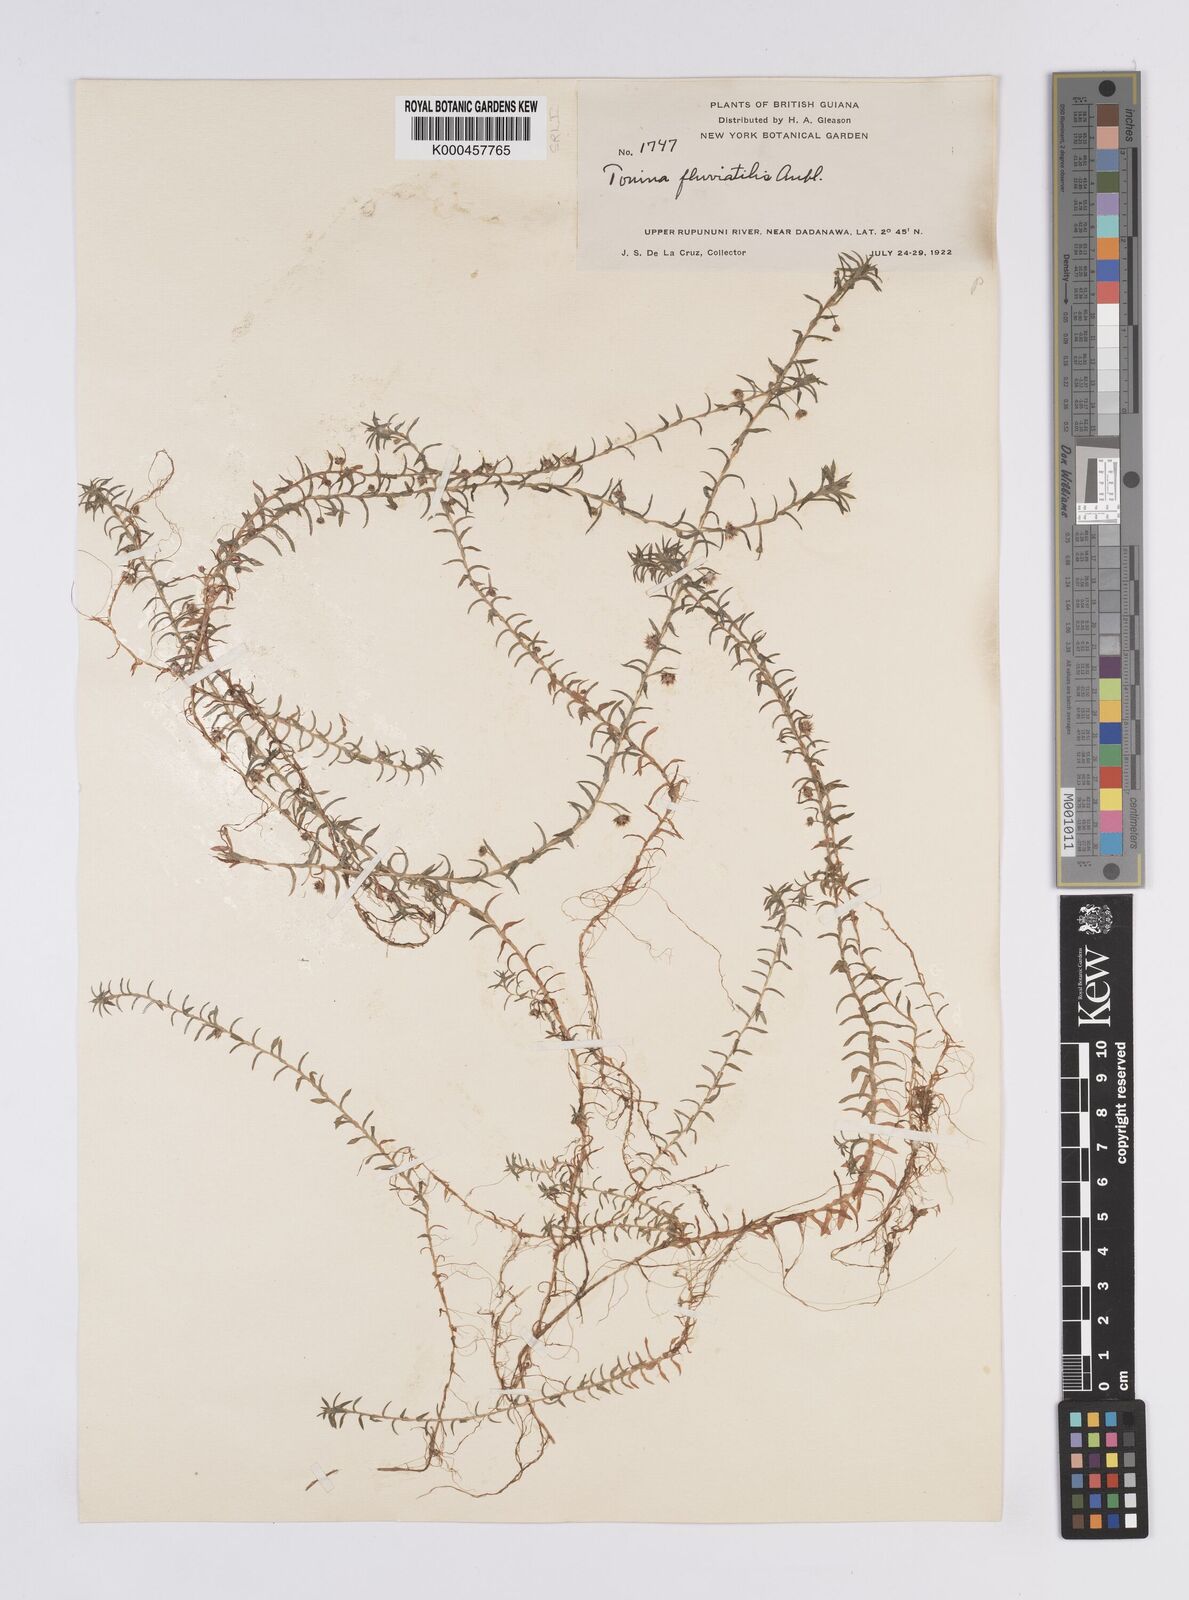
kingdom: Plantae
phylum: Tracheophyta
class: Liliopsida
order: Poales
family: Eriocaulaceae
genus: Paepalanthus
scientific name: Paepalanthus fluviatilis
